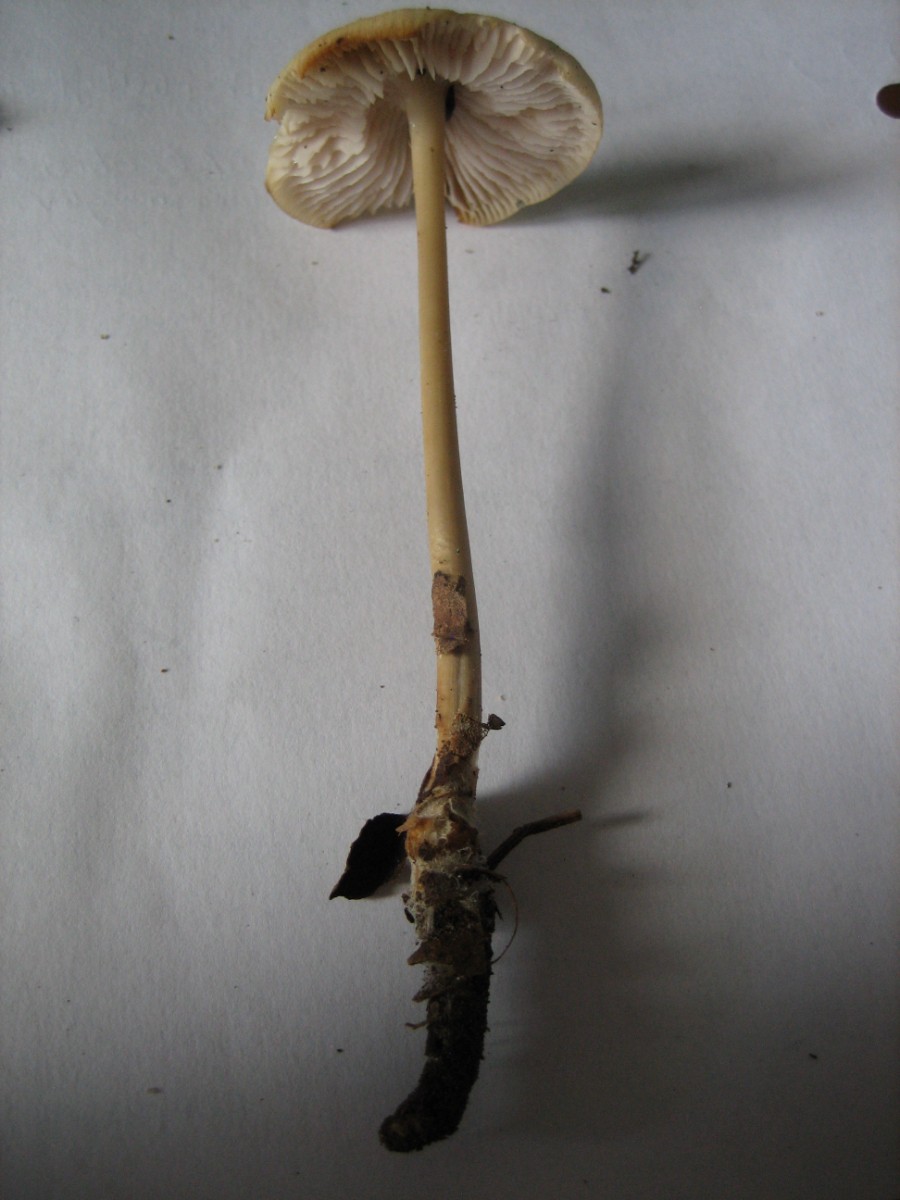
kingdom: Fungi
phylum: Basidiomycota
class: Agaricomycetes
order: Agaricales
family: Mycenaceae
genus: Mycena
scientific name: Mycena galericulata
